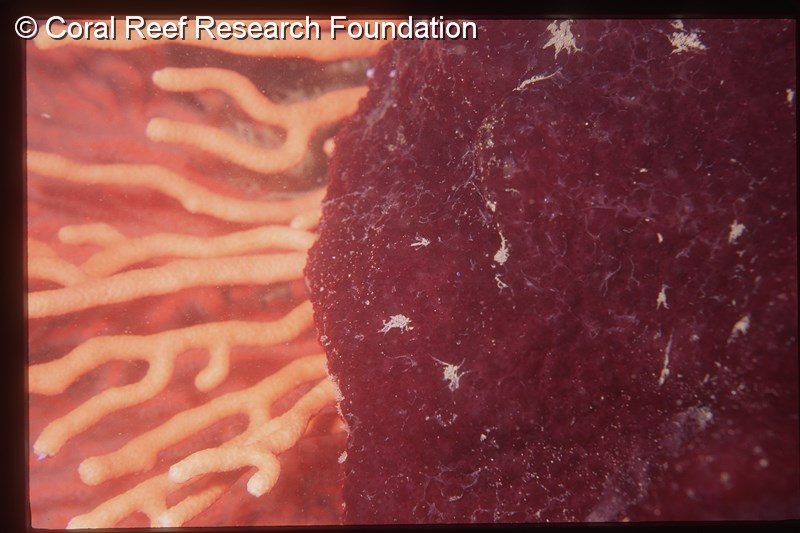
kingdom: Animalia
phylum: Chordata
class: Ascidiacea
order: Aplousobranchia
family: Polycitoridae
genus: Eudistoma
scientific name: Eudistoma bituminis
